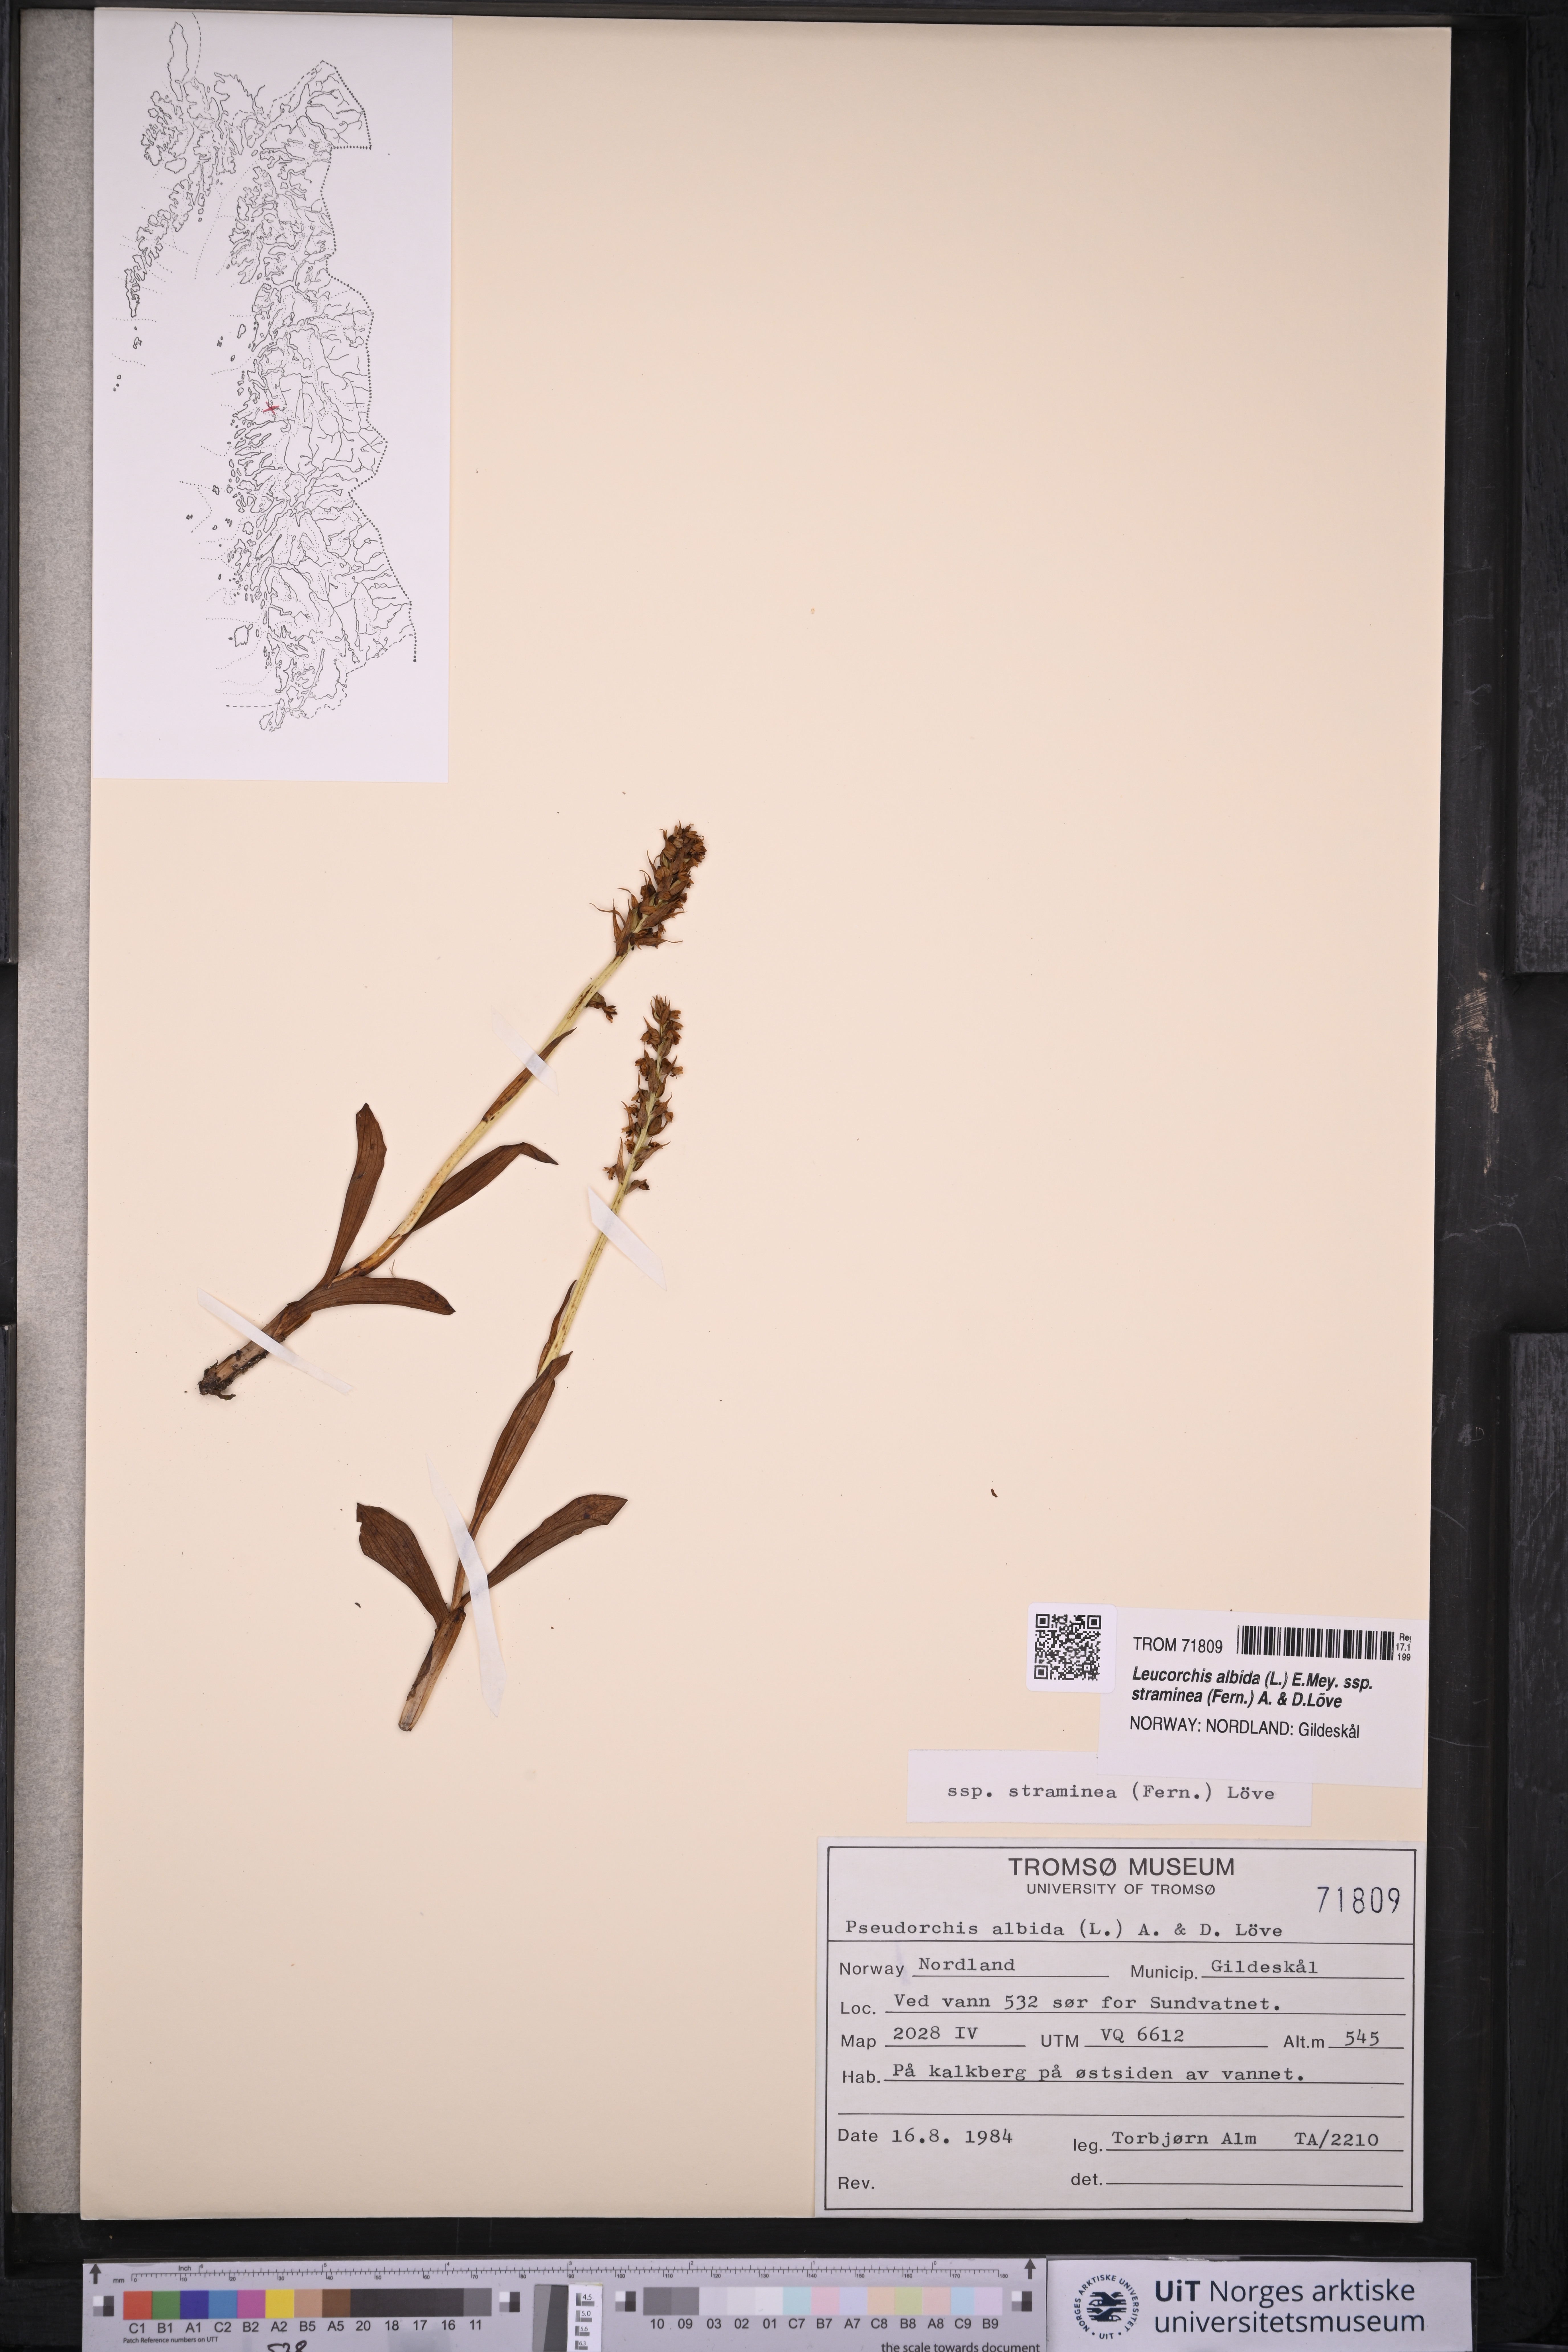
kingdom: Plantae
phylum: Tracheophyta
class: Liliopsida
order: Asparagales
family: Orchidaceae
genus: Pseudorchis
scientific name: Pseudorchis straminea
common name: Vanilla-scented bog orchid
